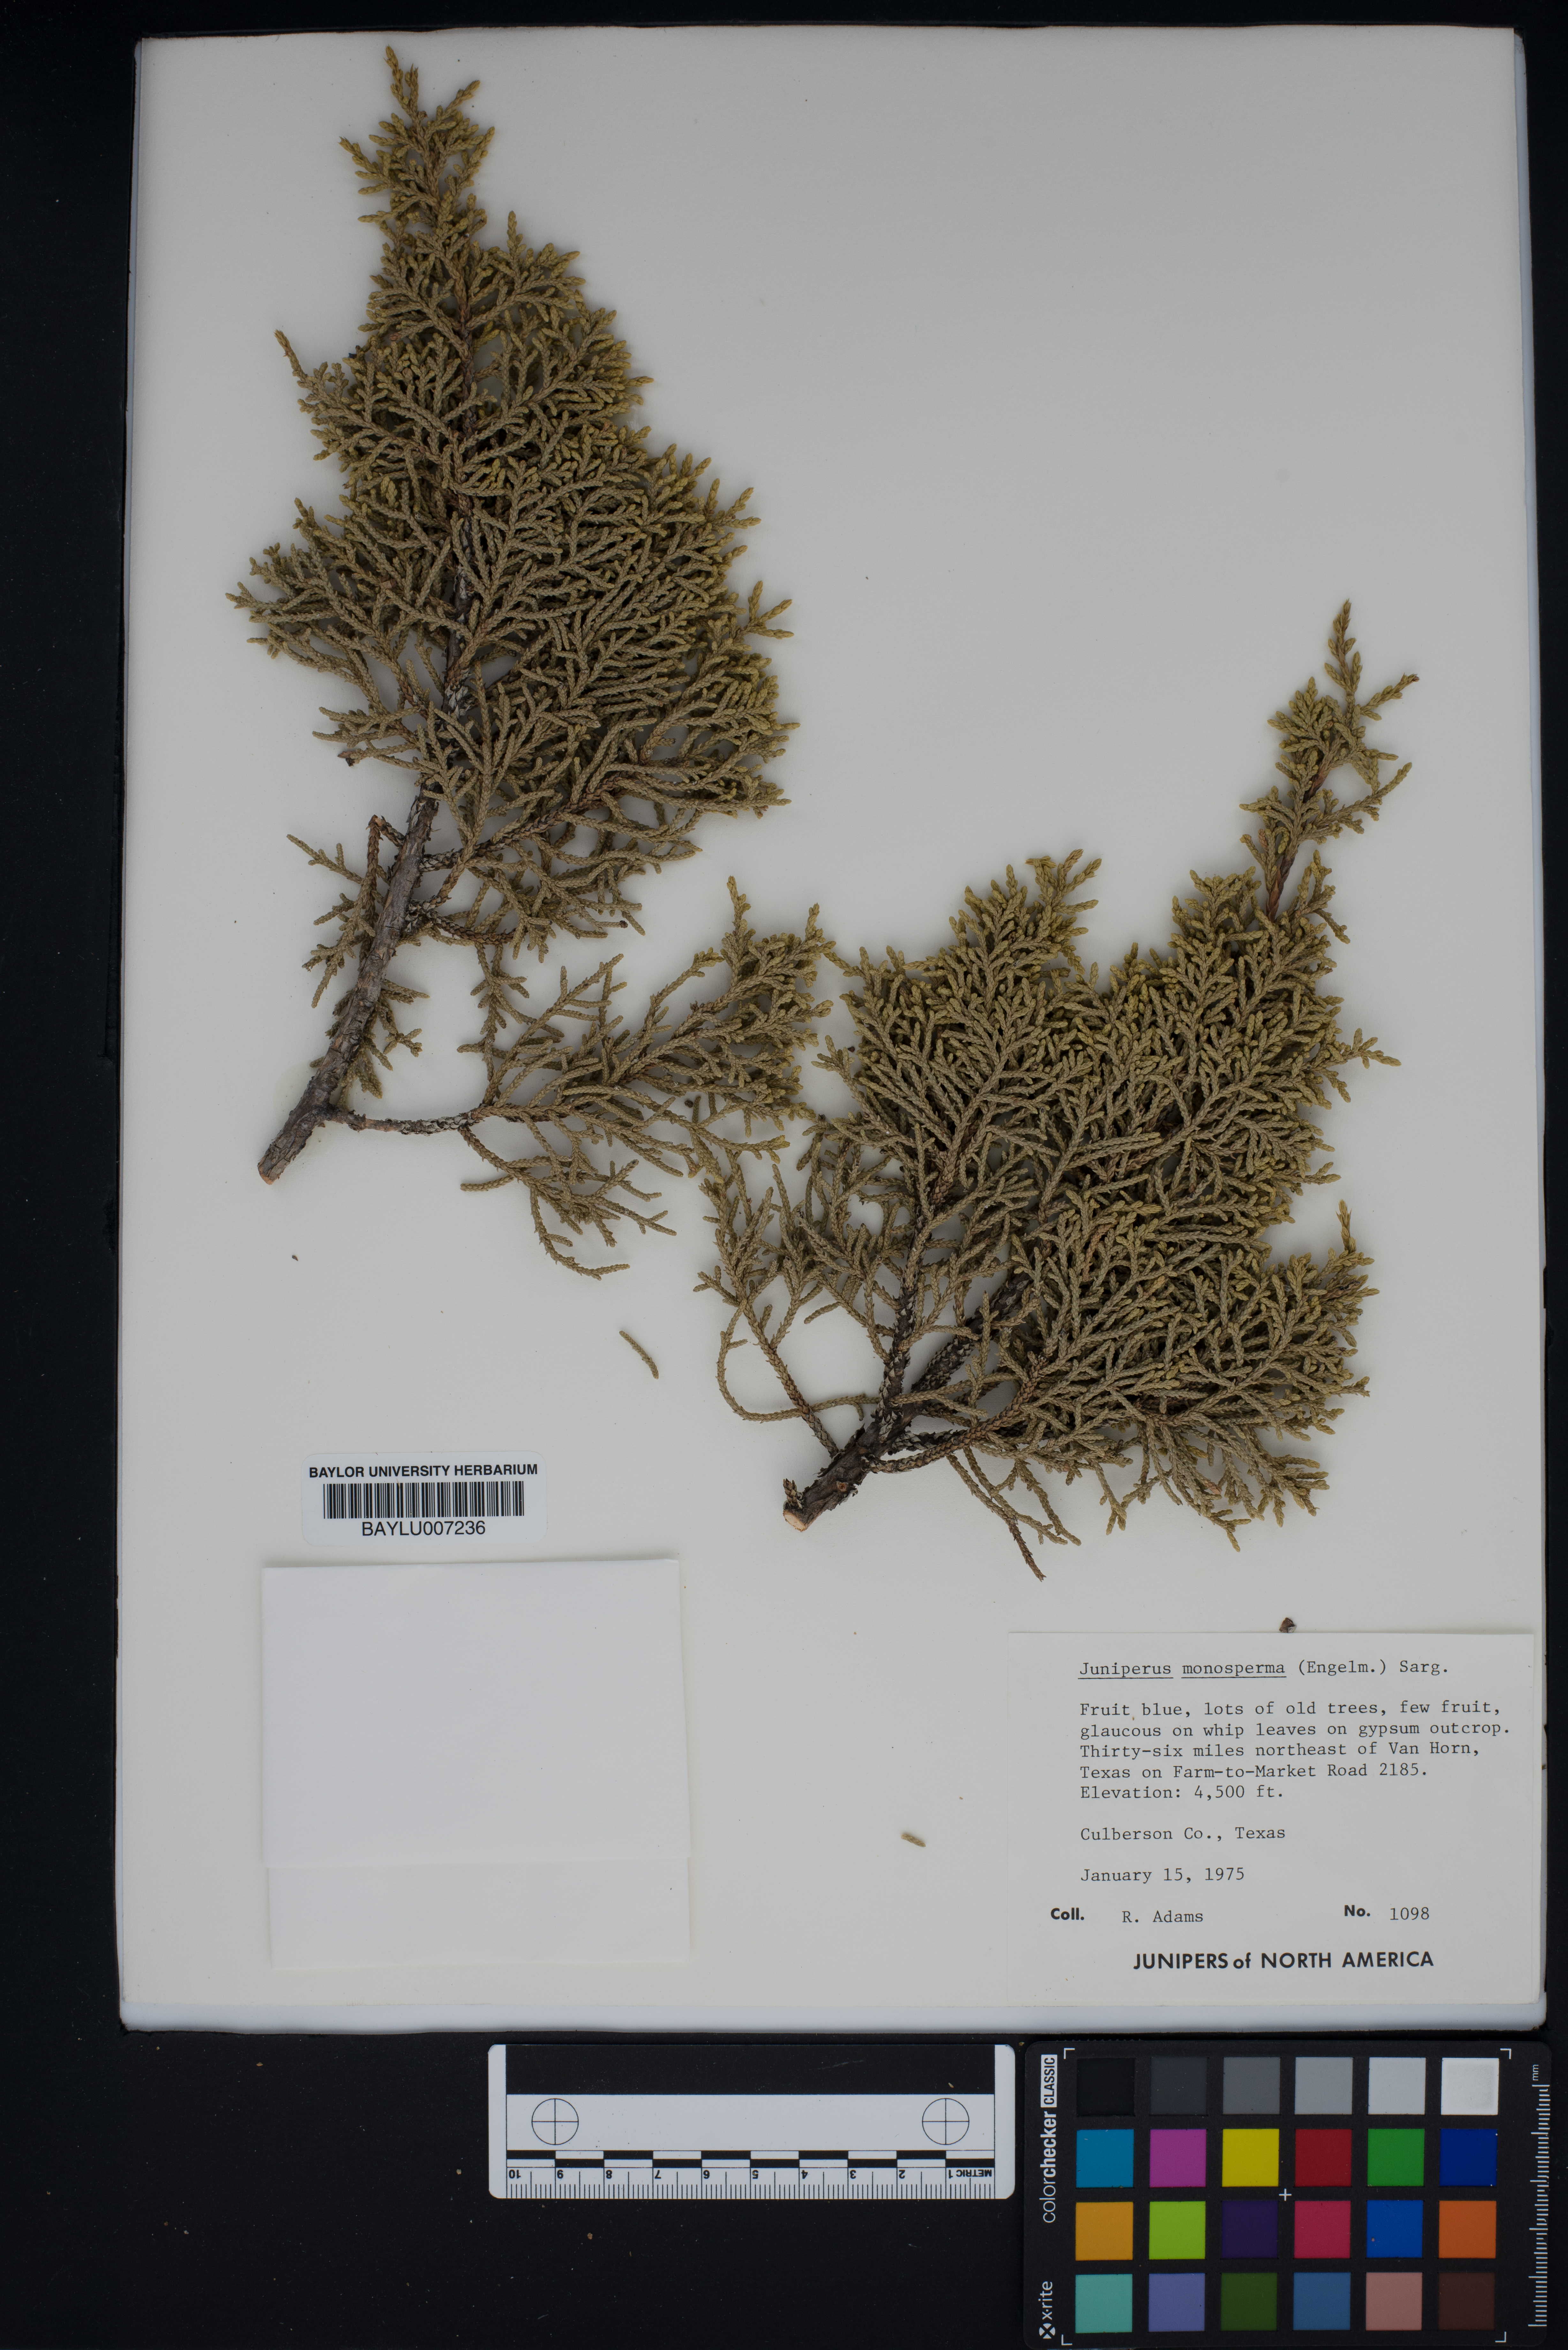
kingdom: Plantae
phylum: Tracheophyta
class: Pinopsida
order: Pinales
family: Cupressaceae
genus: Juniperus
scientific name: Juniperus monosperma
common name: One-seed juniper
